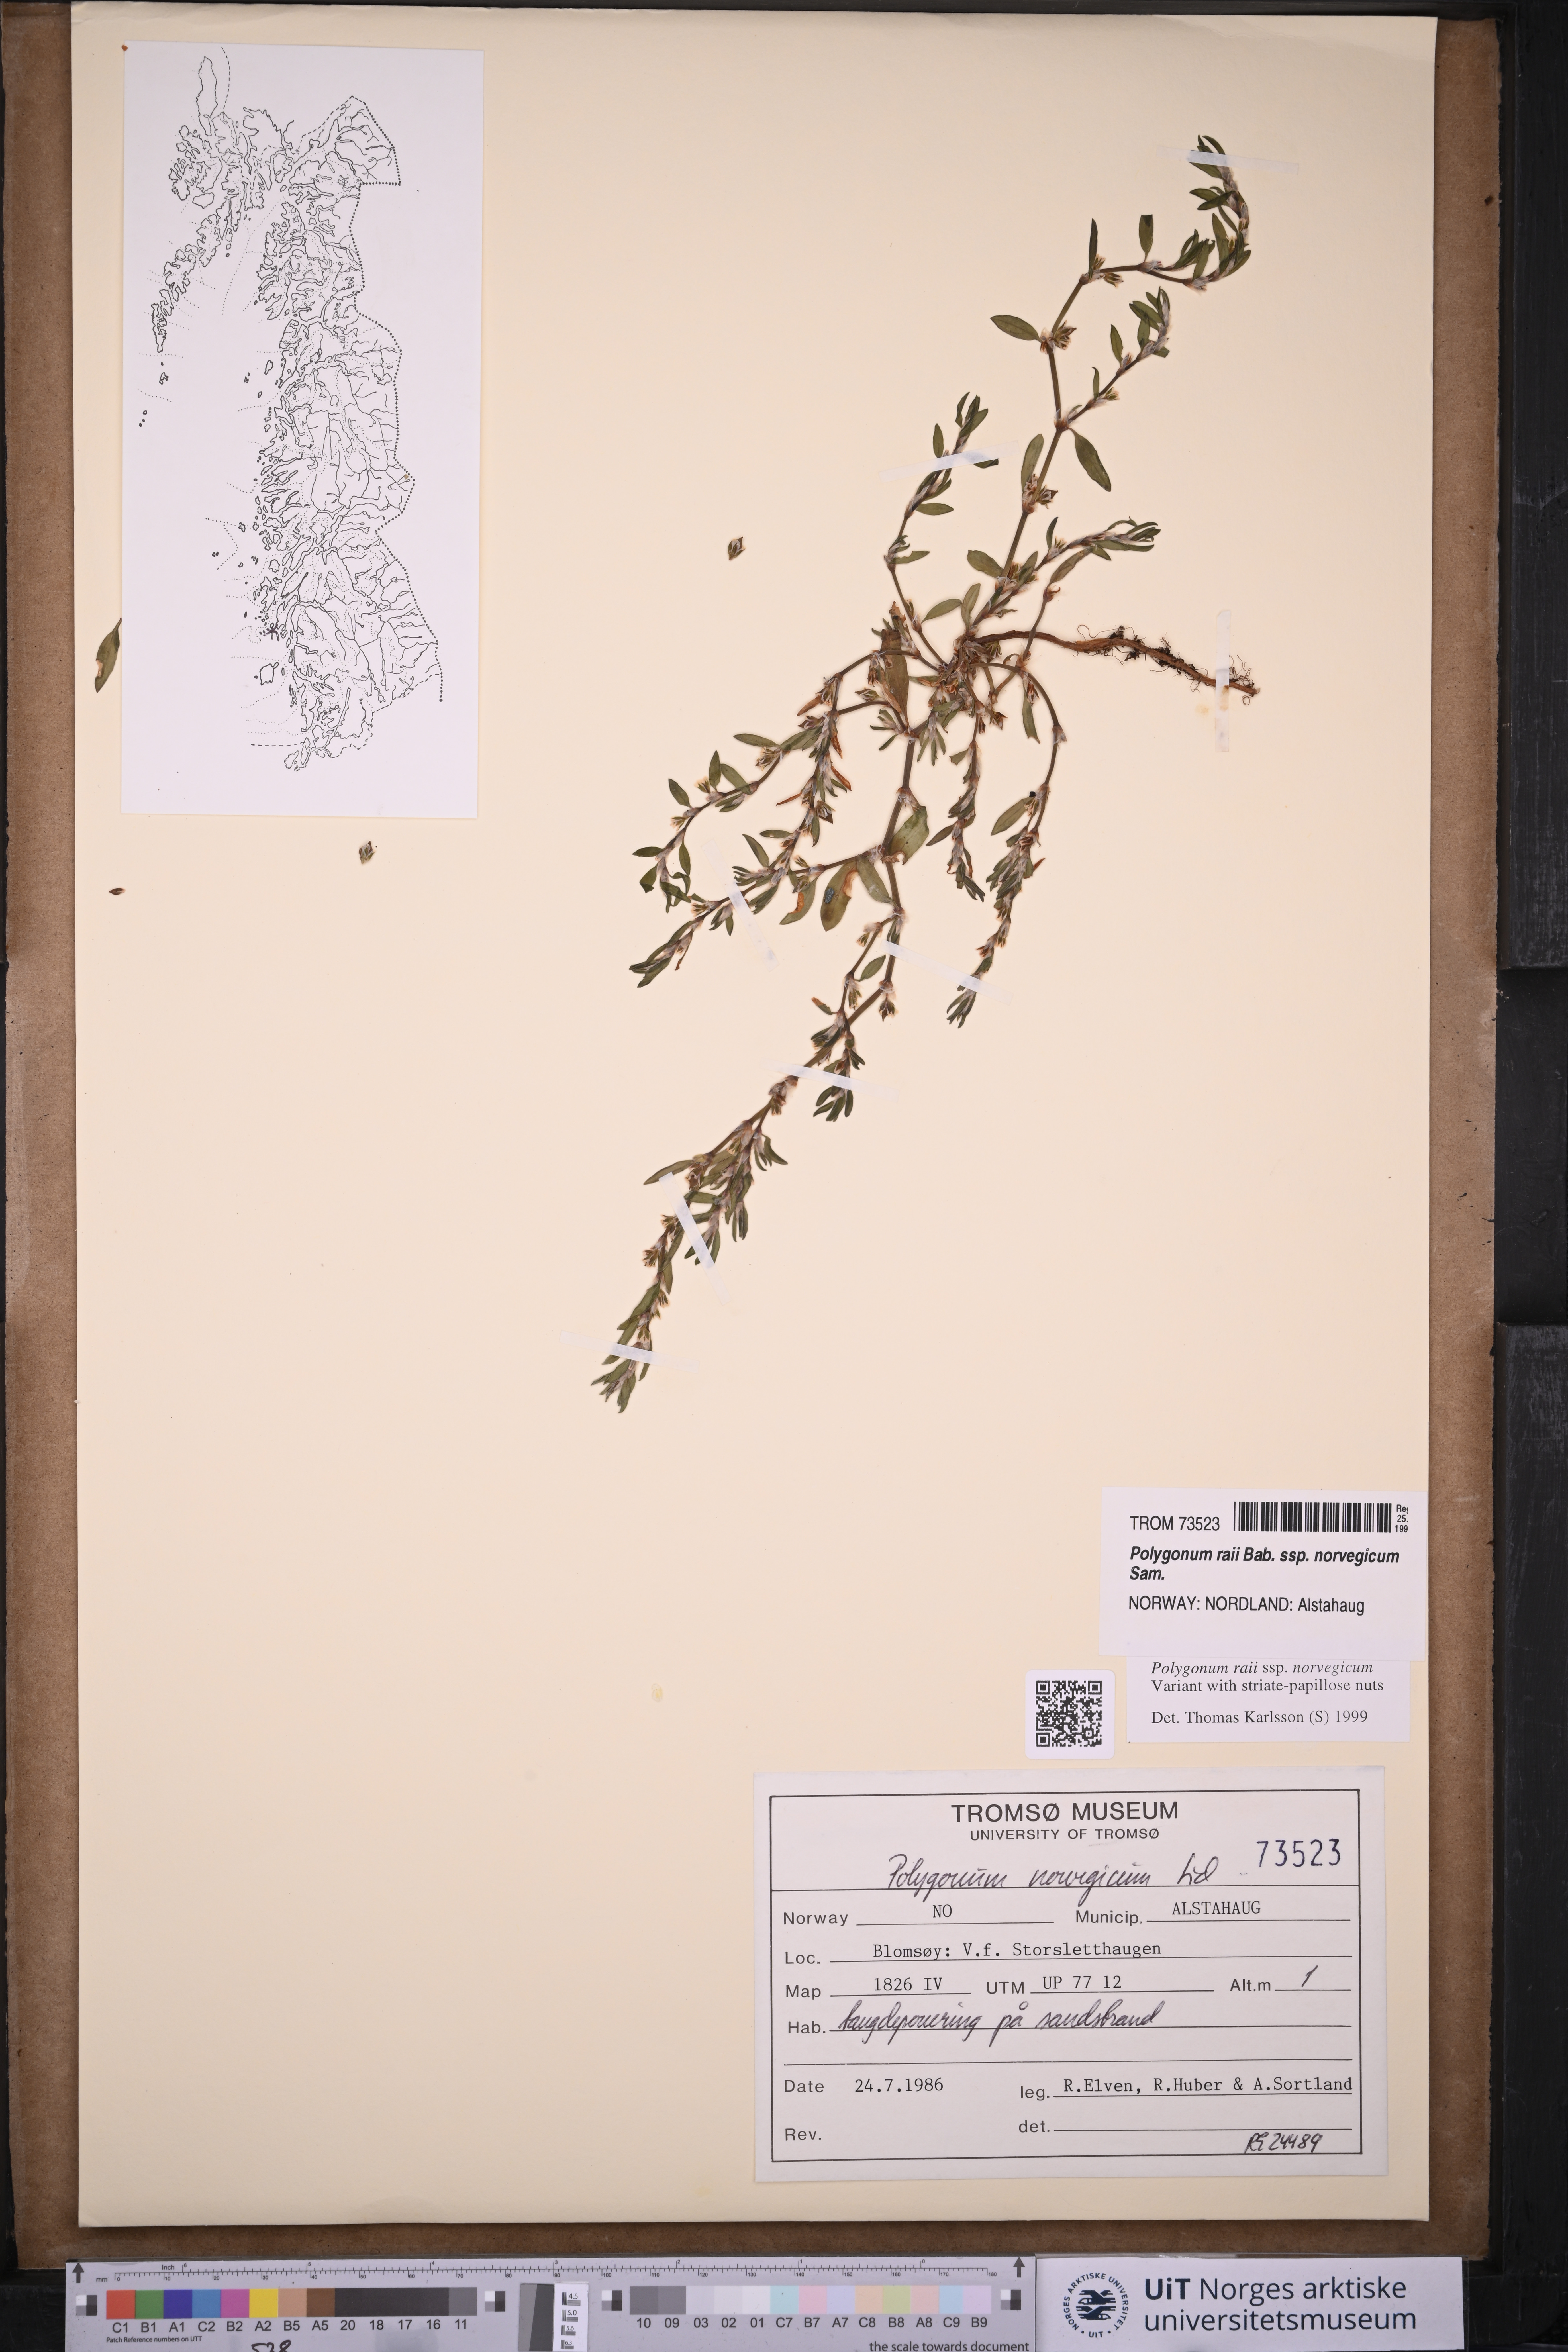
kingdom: Plantae
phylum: Tracheophyta
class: Magnoliopsida
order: Caryophyllales
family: Polygonaceae
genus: Polygonum
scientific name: Polygonum norvegicum
